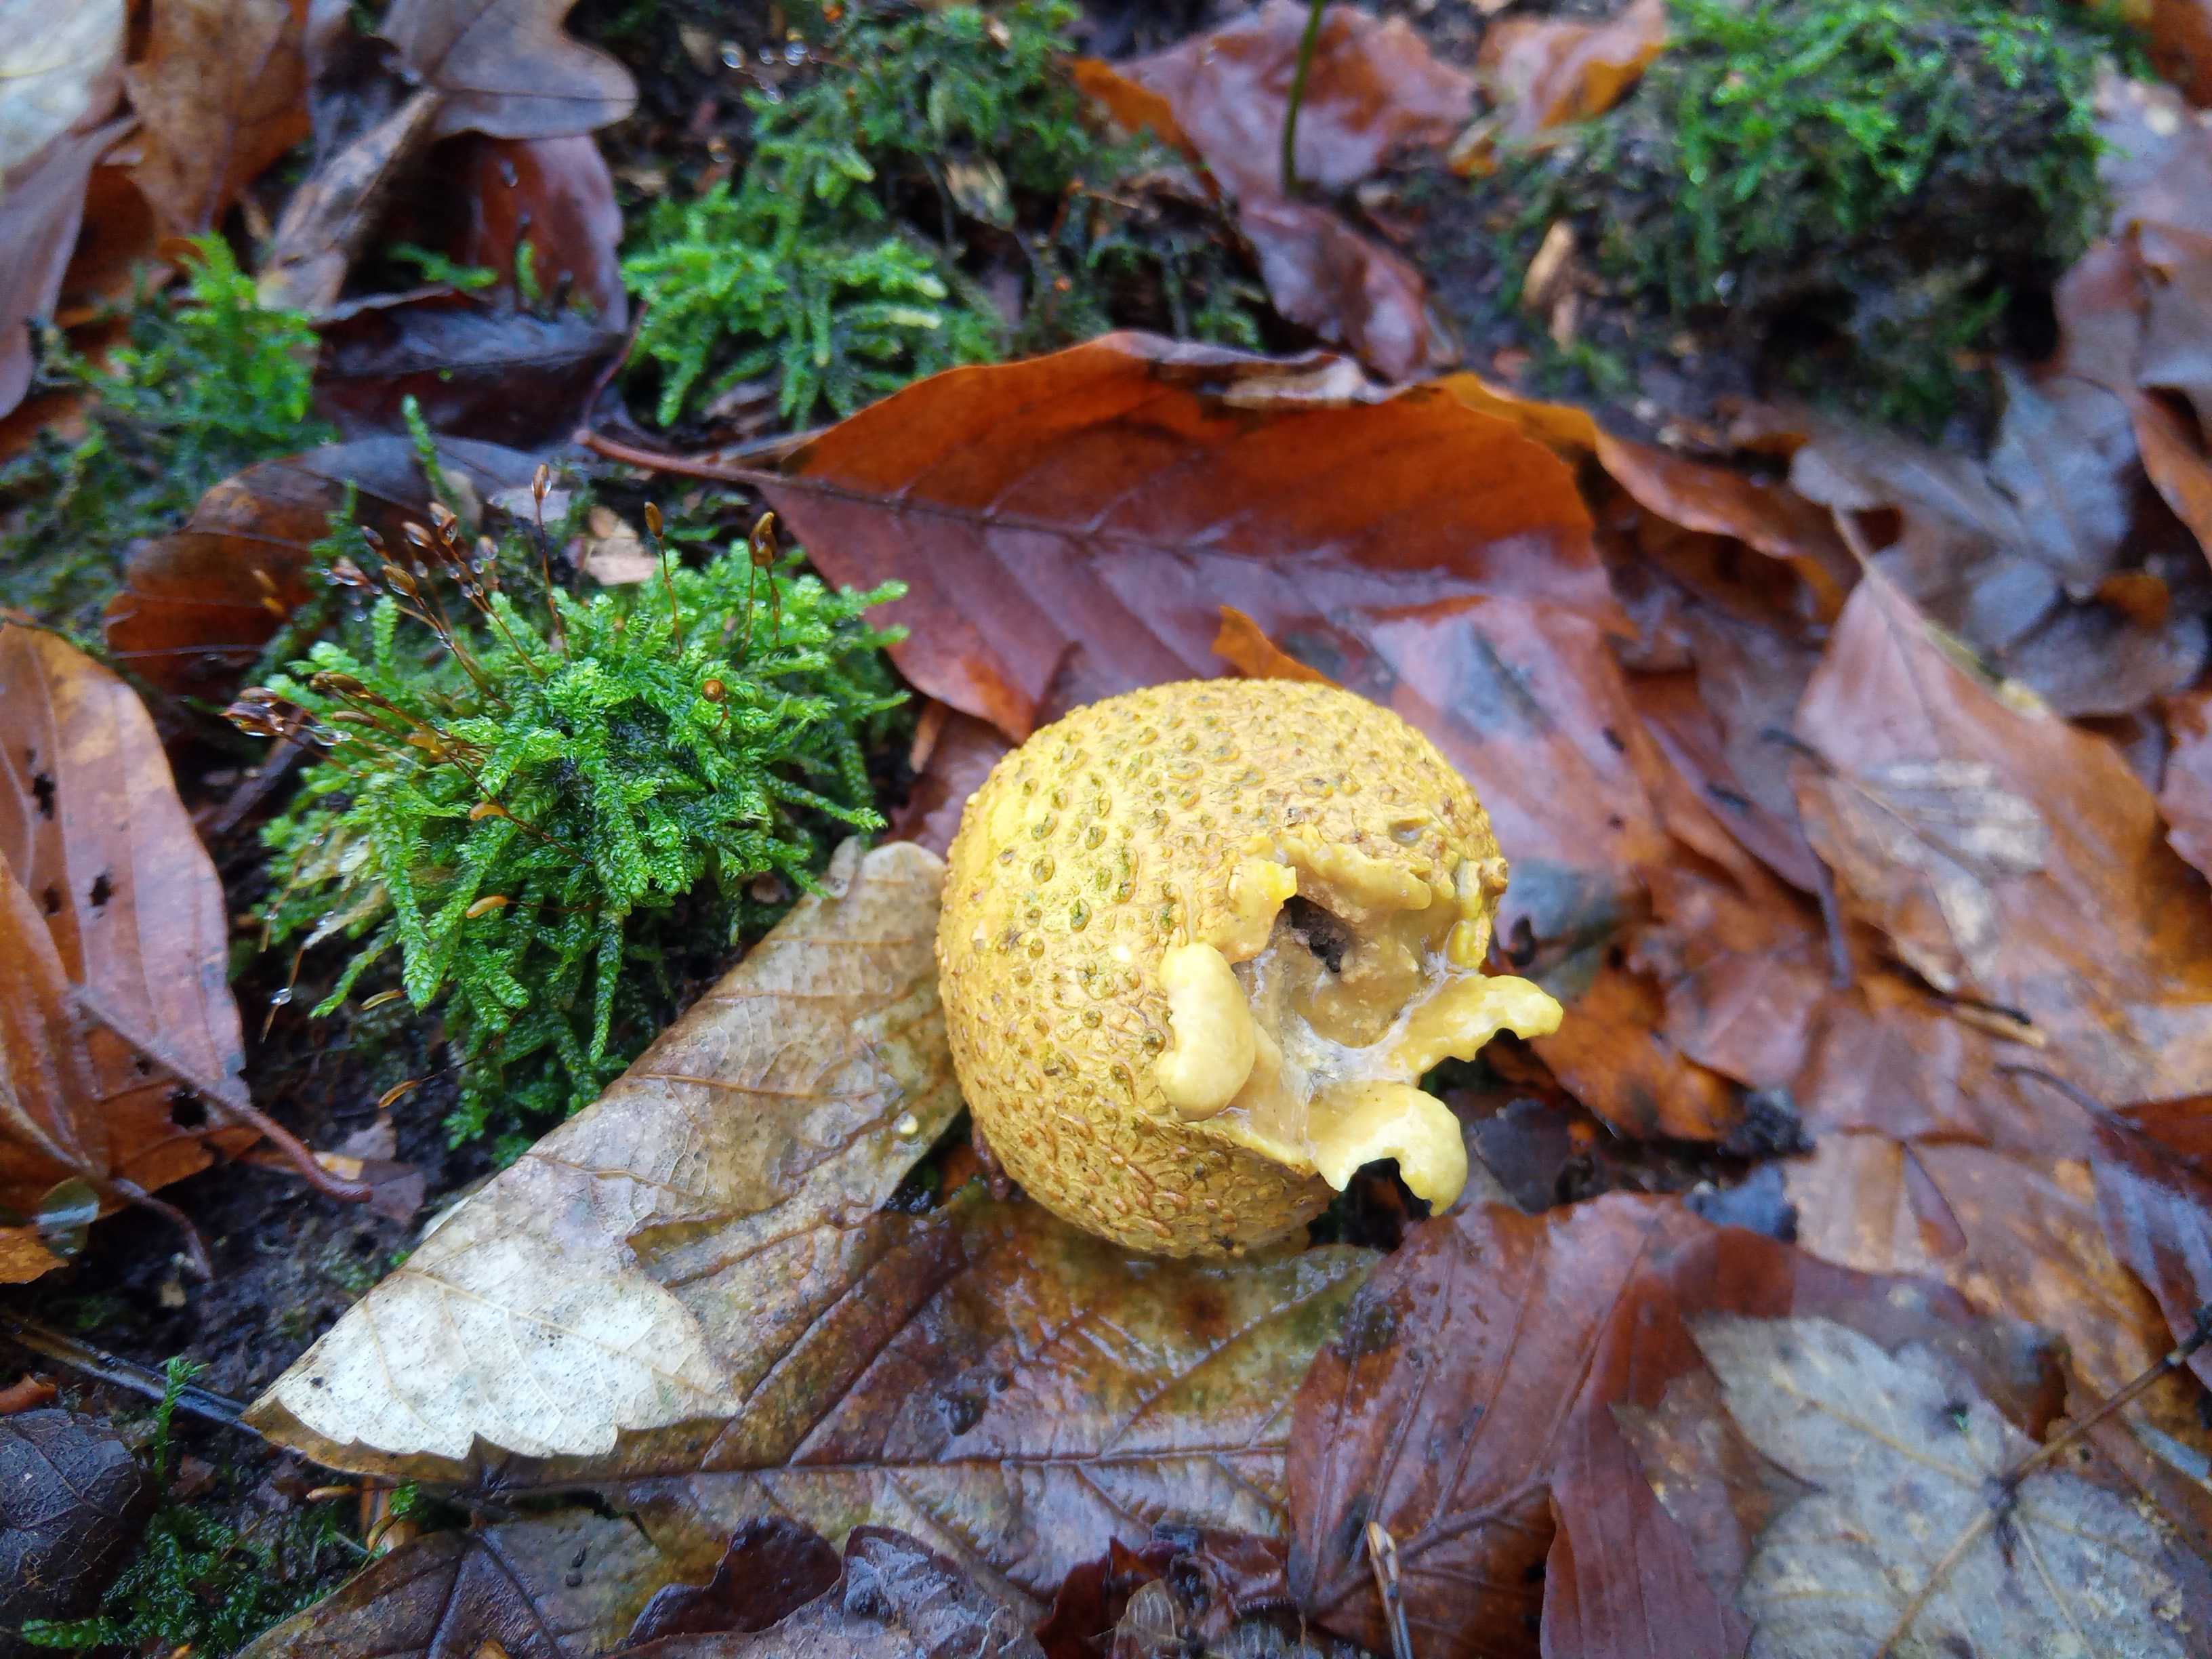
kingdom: Fungi
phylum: Basidiomycota
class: Agaricomycetes
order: Boletales
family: Sclerodermataceae
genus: Scleroderma
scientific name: Scleroderma citrinum
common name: almindelig bruskbold
